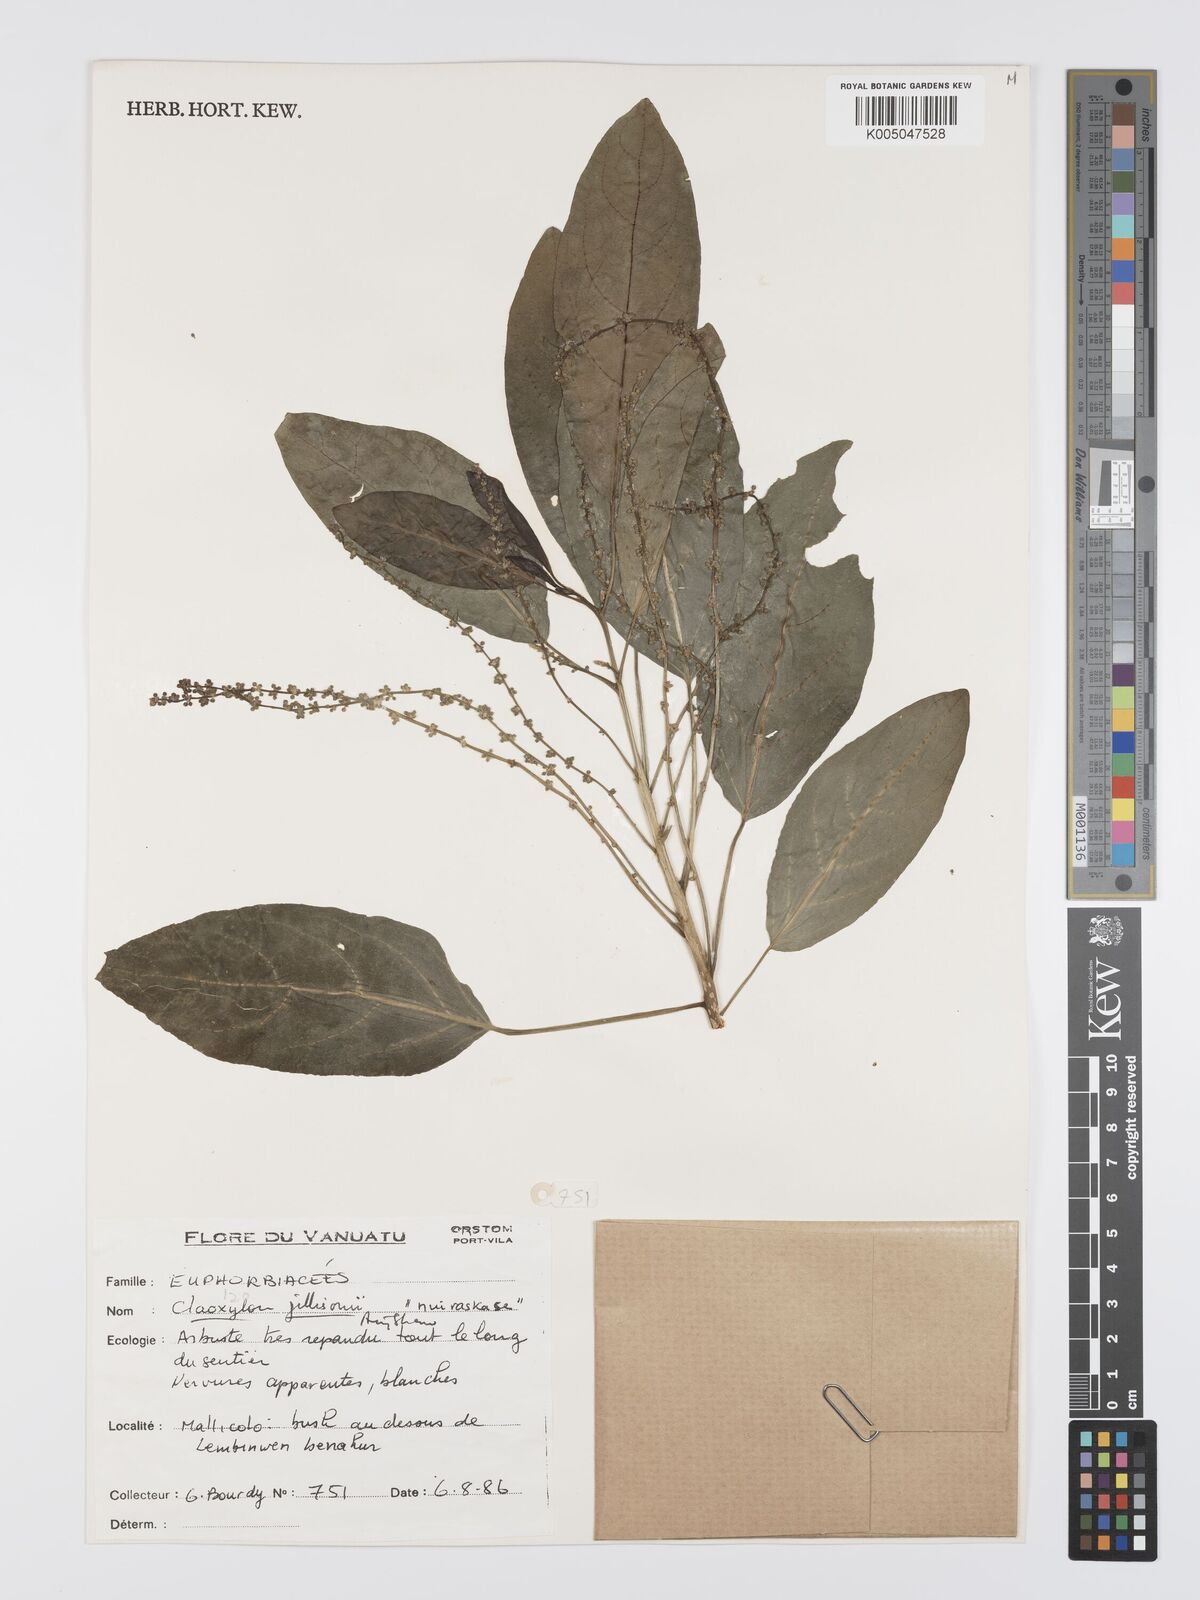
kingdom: Plantae
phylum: Tracheophyta
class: Magnoliopsida
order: Malpighiales
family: Euphorbiaceae
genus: Claoxylon
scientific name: Claoxylon gillisonii
